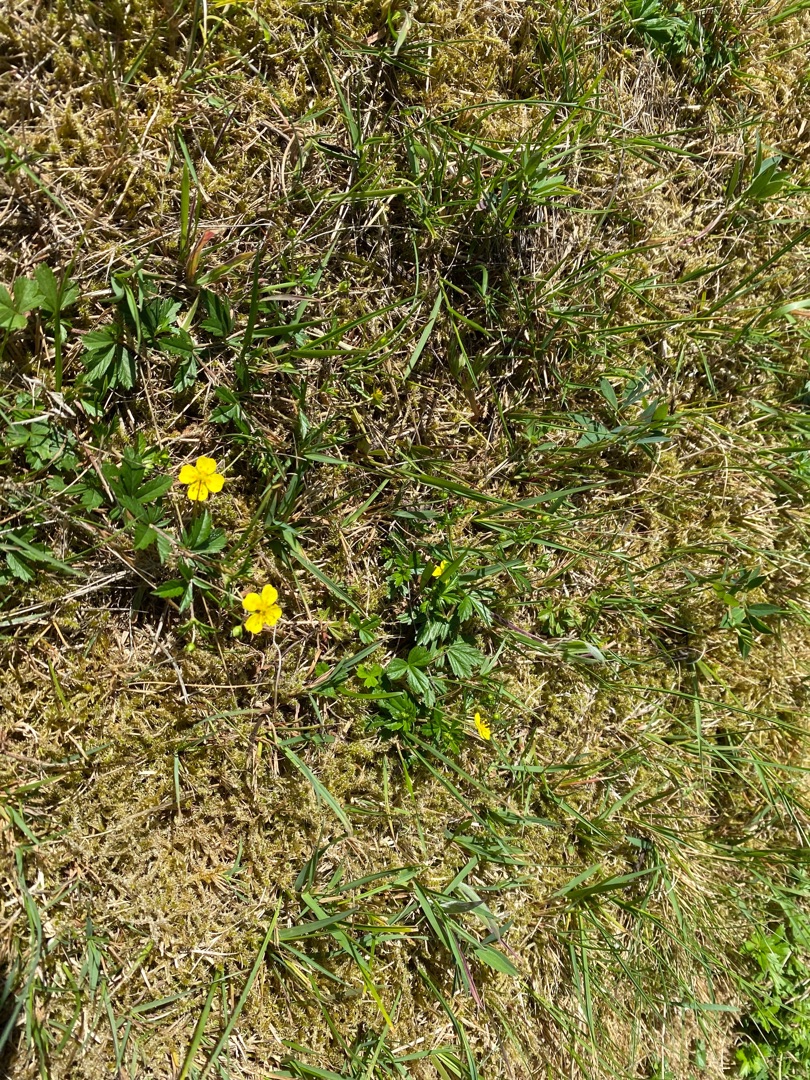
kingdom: Plantae
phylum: Tracheophyta
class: Magnoliopsida
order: Rosales
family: Rosaceae
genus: Potentilla
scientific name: Potentilla erecta
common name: Tormentil
